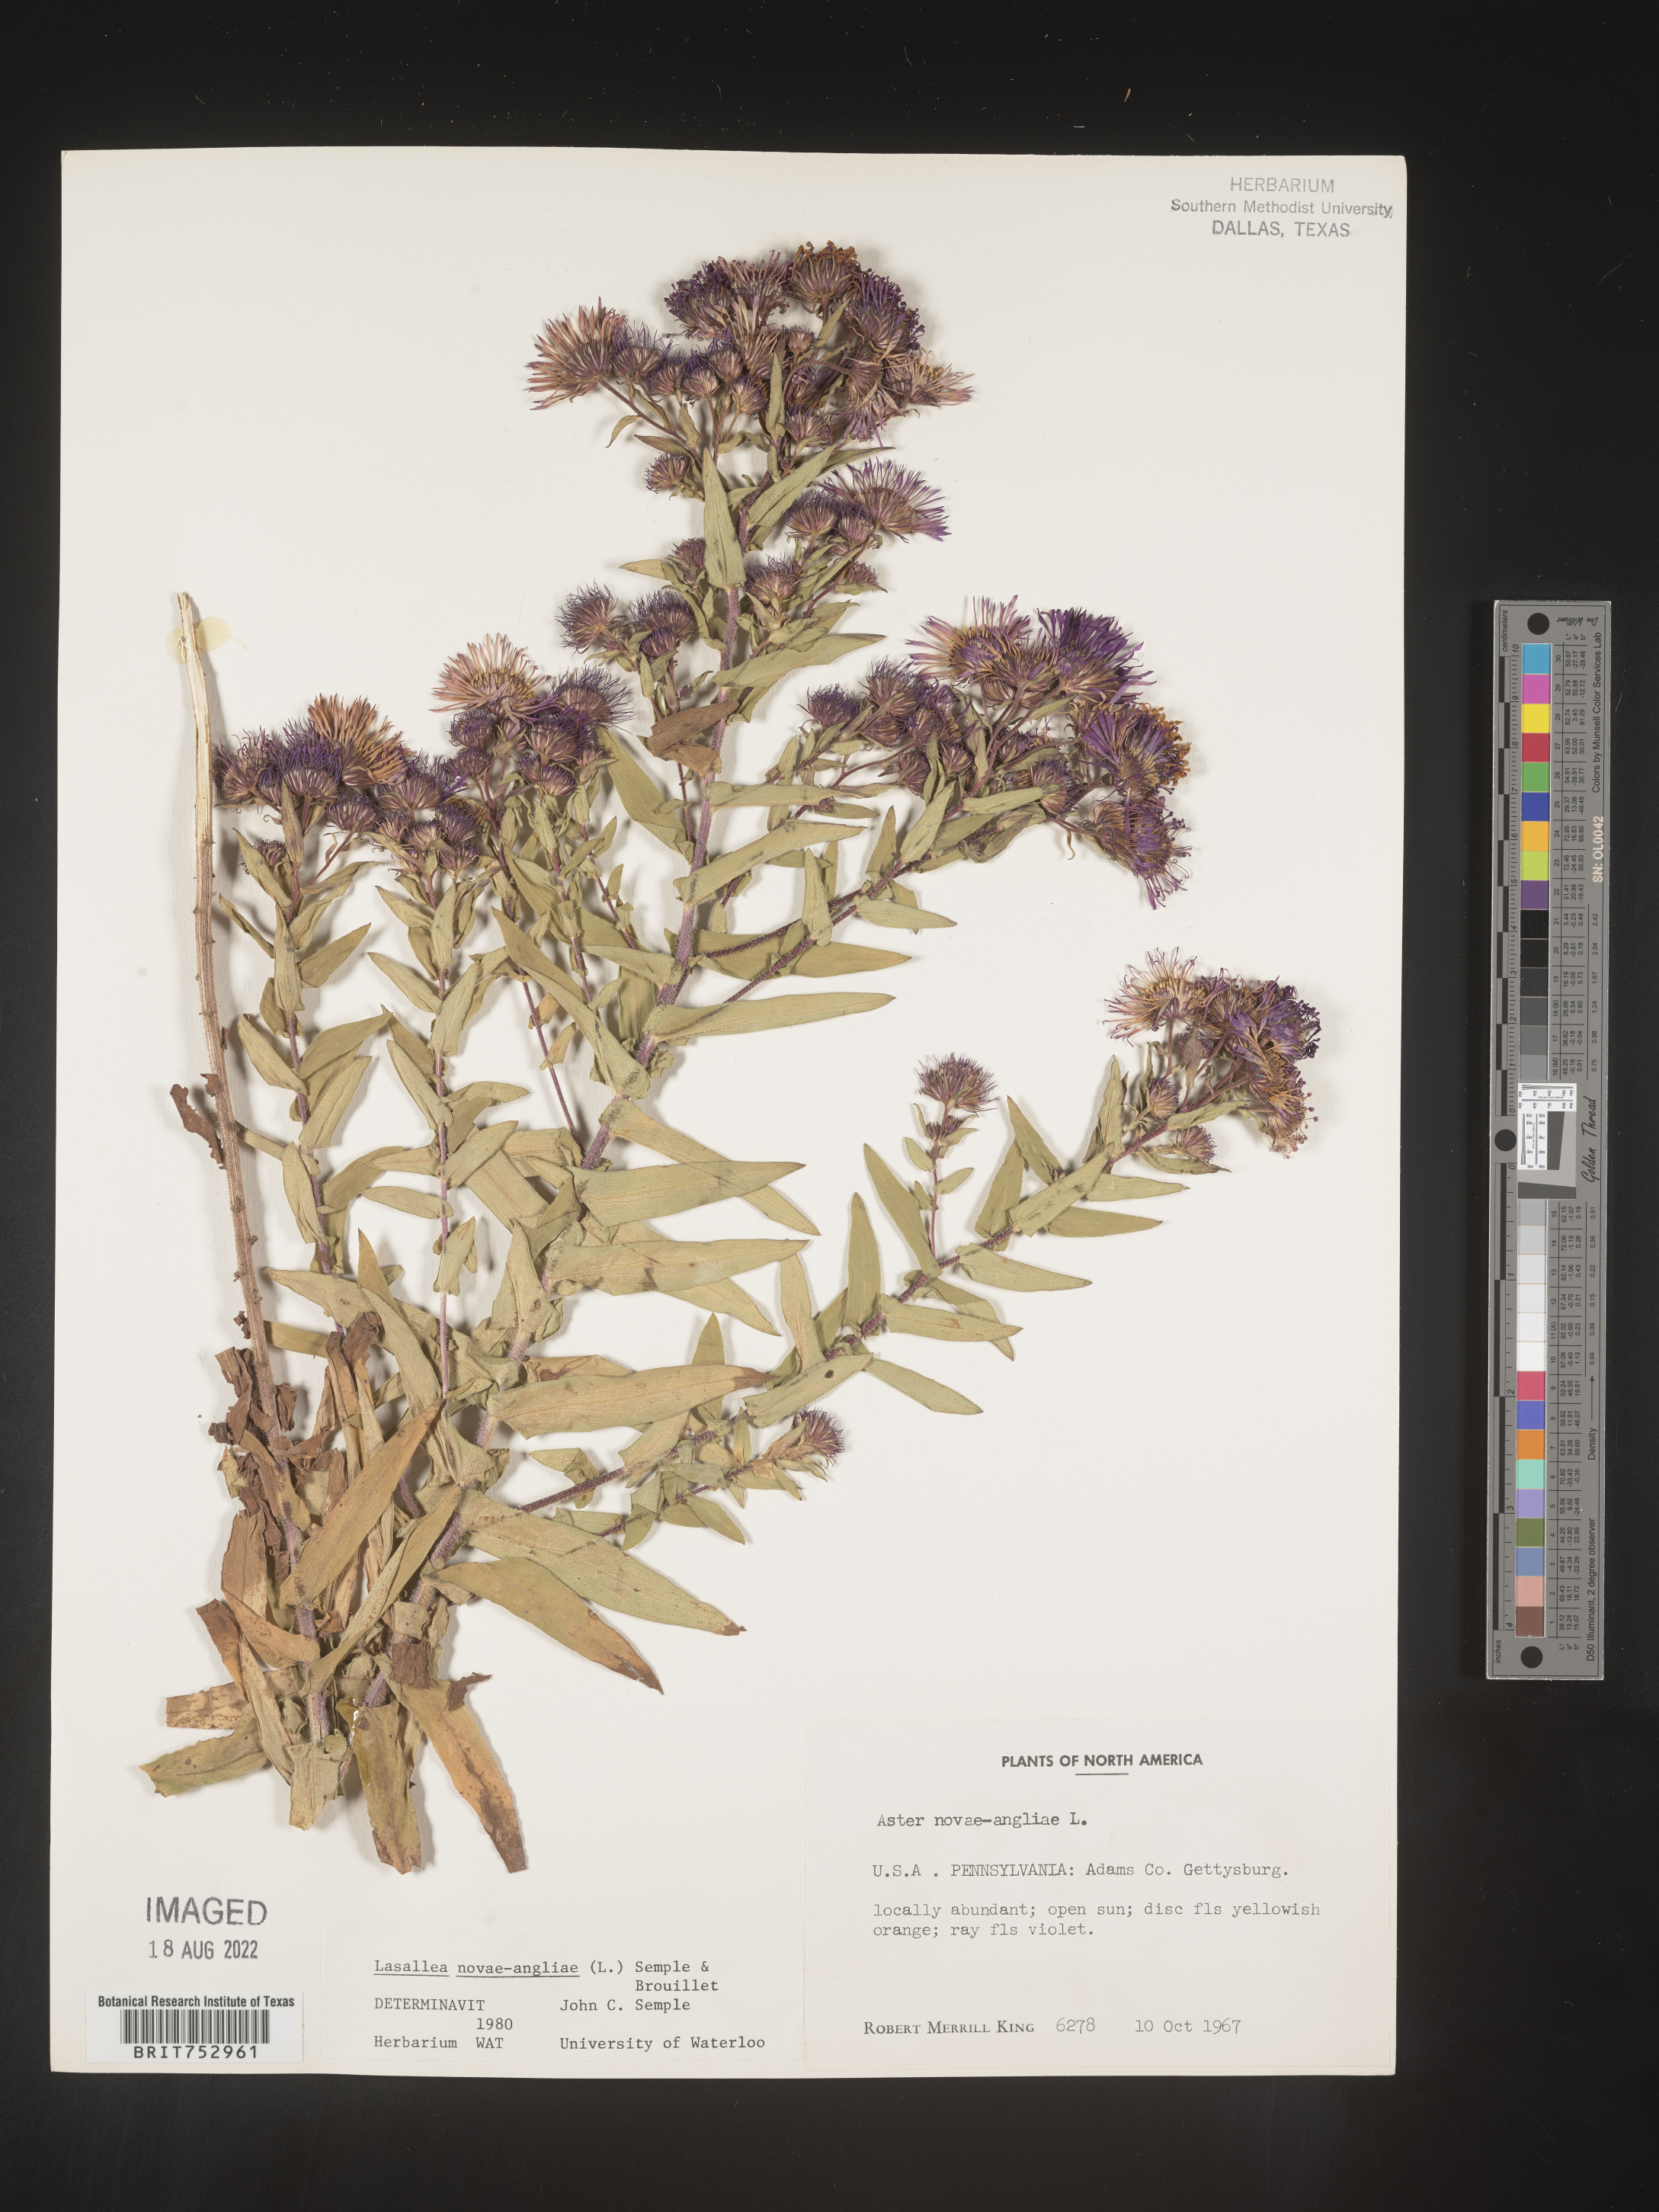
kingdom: Plantae
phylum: Tracheophyta
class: Magnoliopsida
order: Asterales
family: Asteraceae
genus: Symphyotrichum
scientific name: Symphyotrichum novae-angliae
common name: Michaelmas daisy
